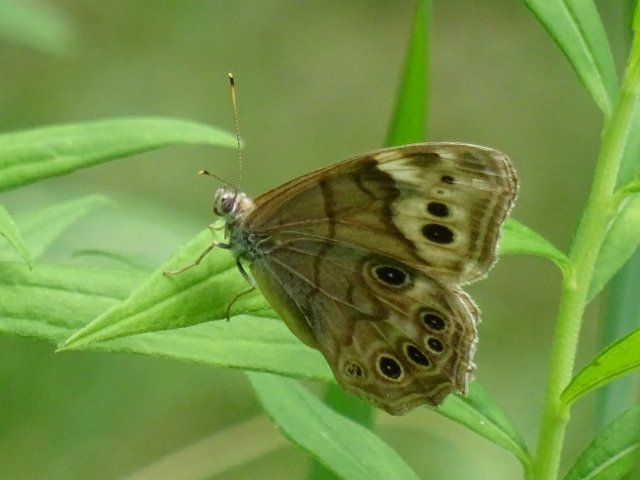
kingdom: Animalia
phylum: Arthropoda
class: Insecta
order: Lepidoptera
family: Nymphalidae
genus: Lethe
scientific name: Lethe anthedon
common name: Northern Pearly-Eye
